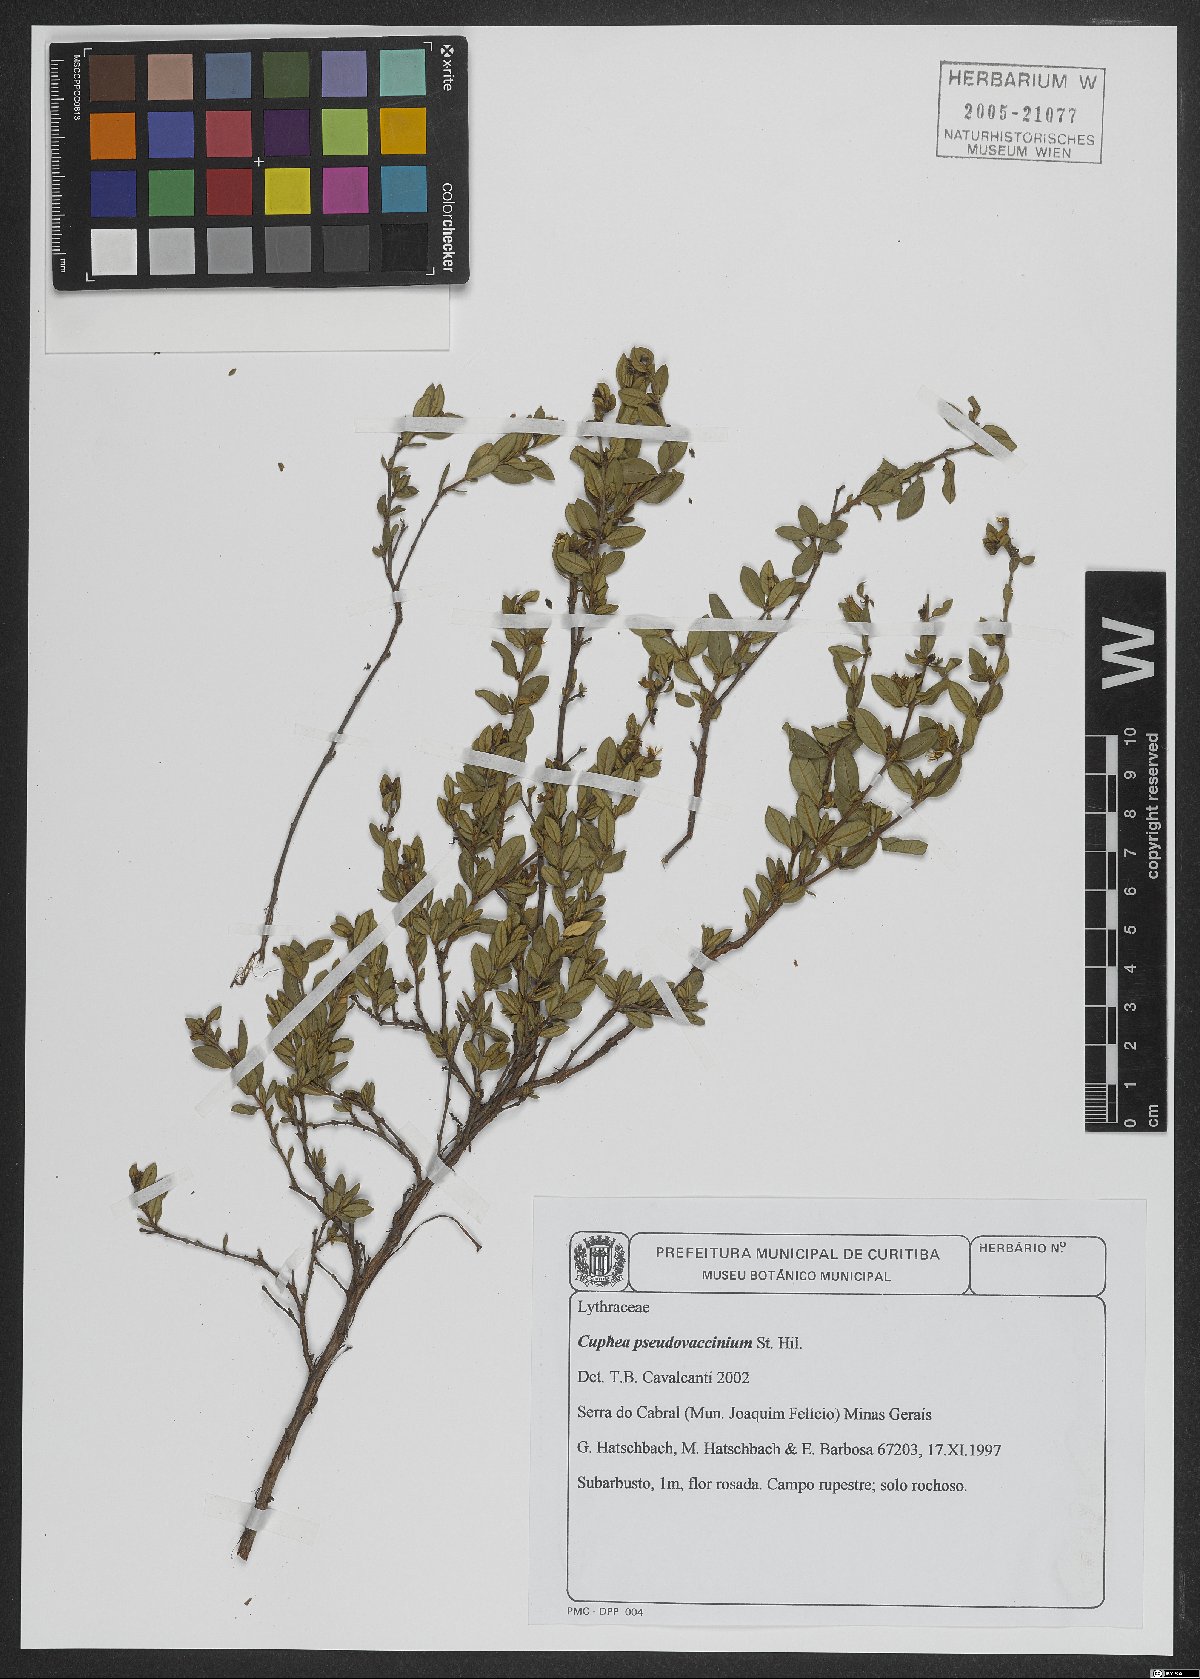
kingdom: Plantae
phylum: Tracheophyta
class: Magnoliopsida
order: Myrtales
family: Lythraceae
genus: Cuphea
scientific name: Cuphea pseudovaccinium
